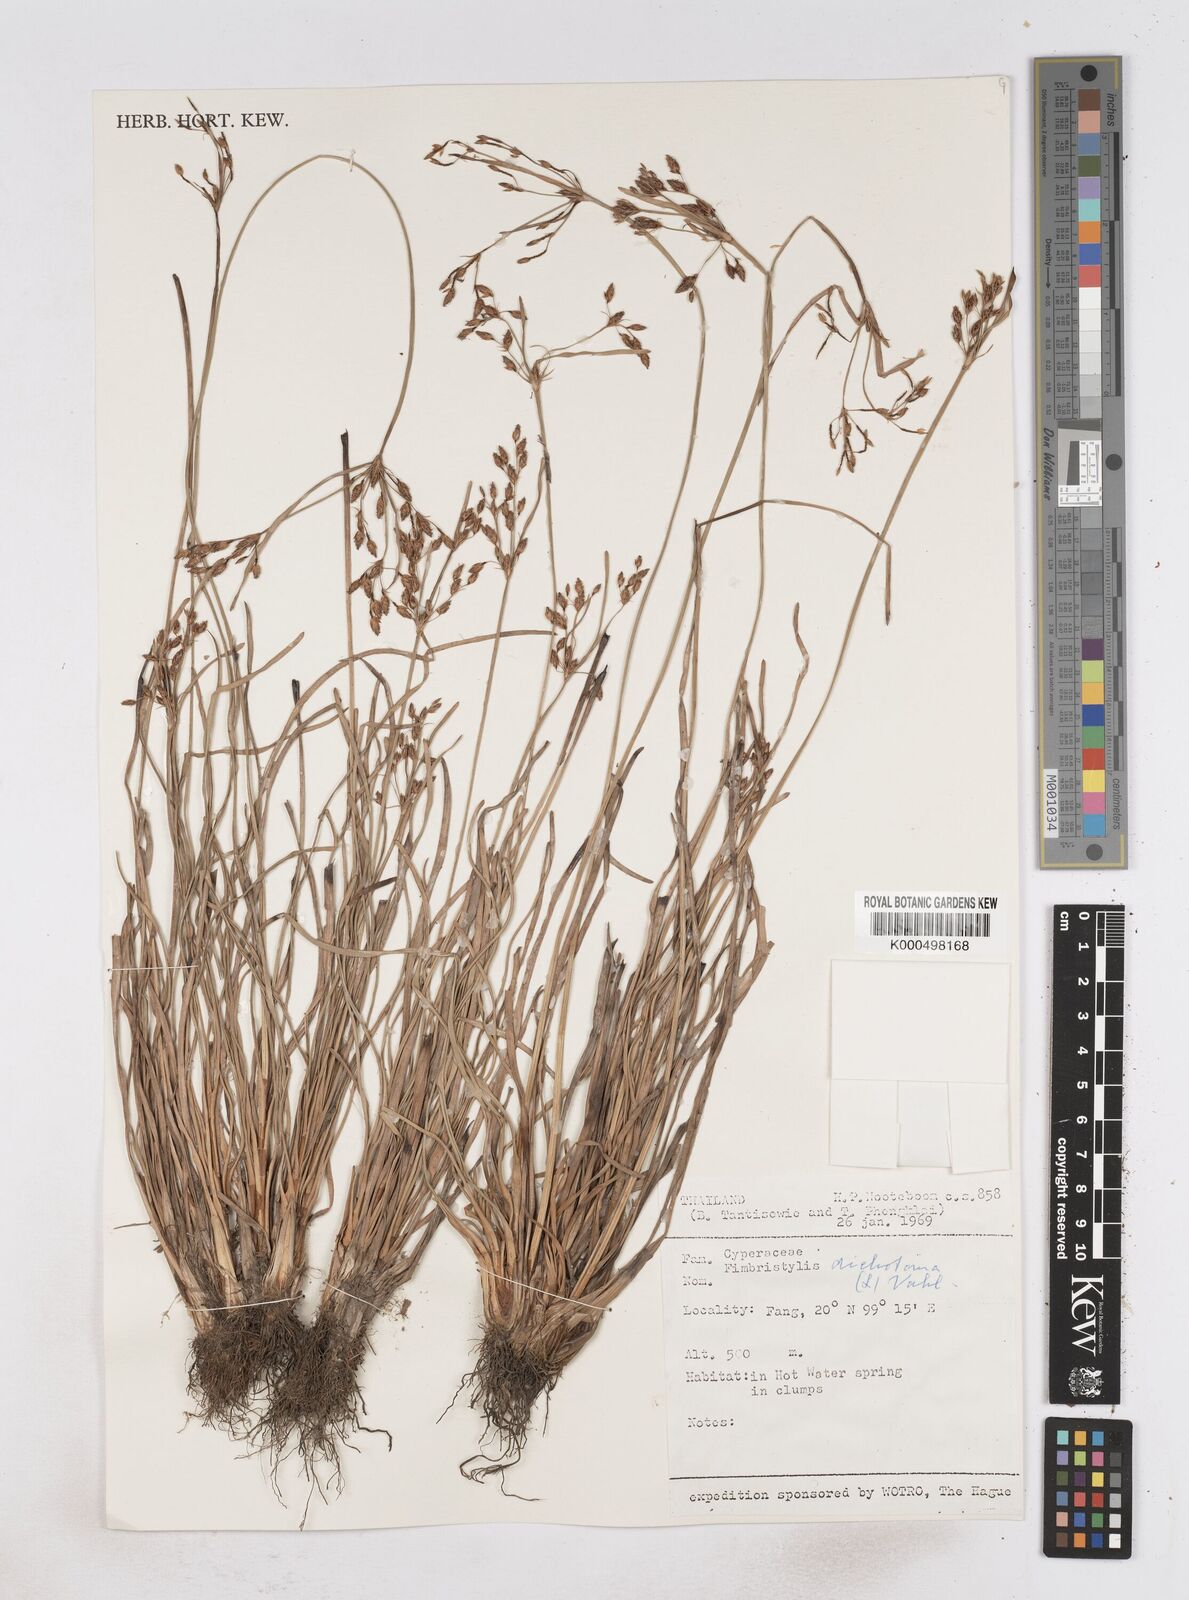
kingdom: Plantae
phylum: Tracheophyta
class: Liliopsida
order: Poales
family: Cyperaceae
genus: Fimbristylis
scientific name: Fimbristylis dichotoma
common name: Forked fimbry
